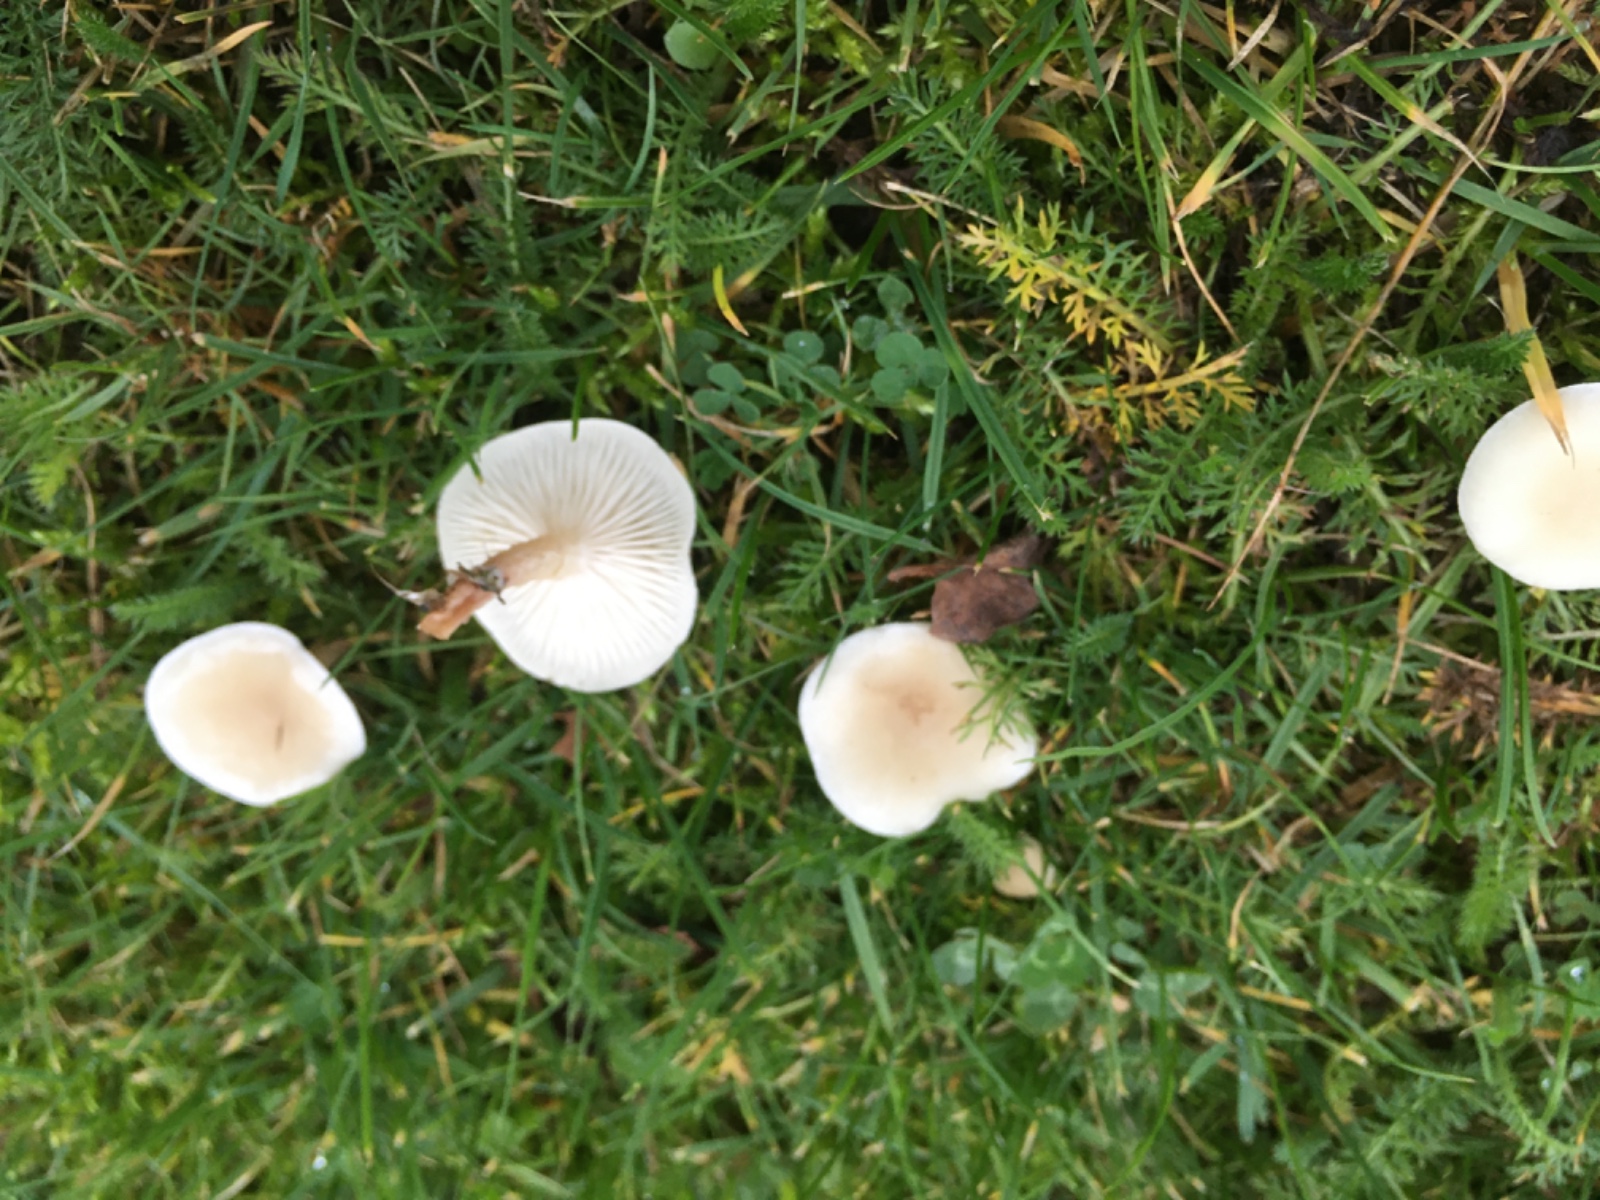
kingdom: Fungi
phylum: Basidiomycota
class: Agaricomycetes
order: Agaricales
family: Tricholomataceae
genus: Clitocybe
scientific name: Clitocybe
